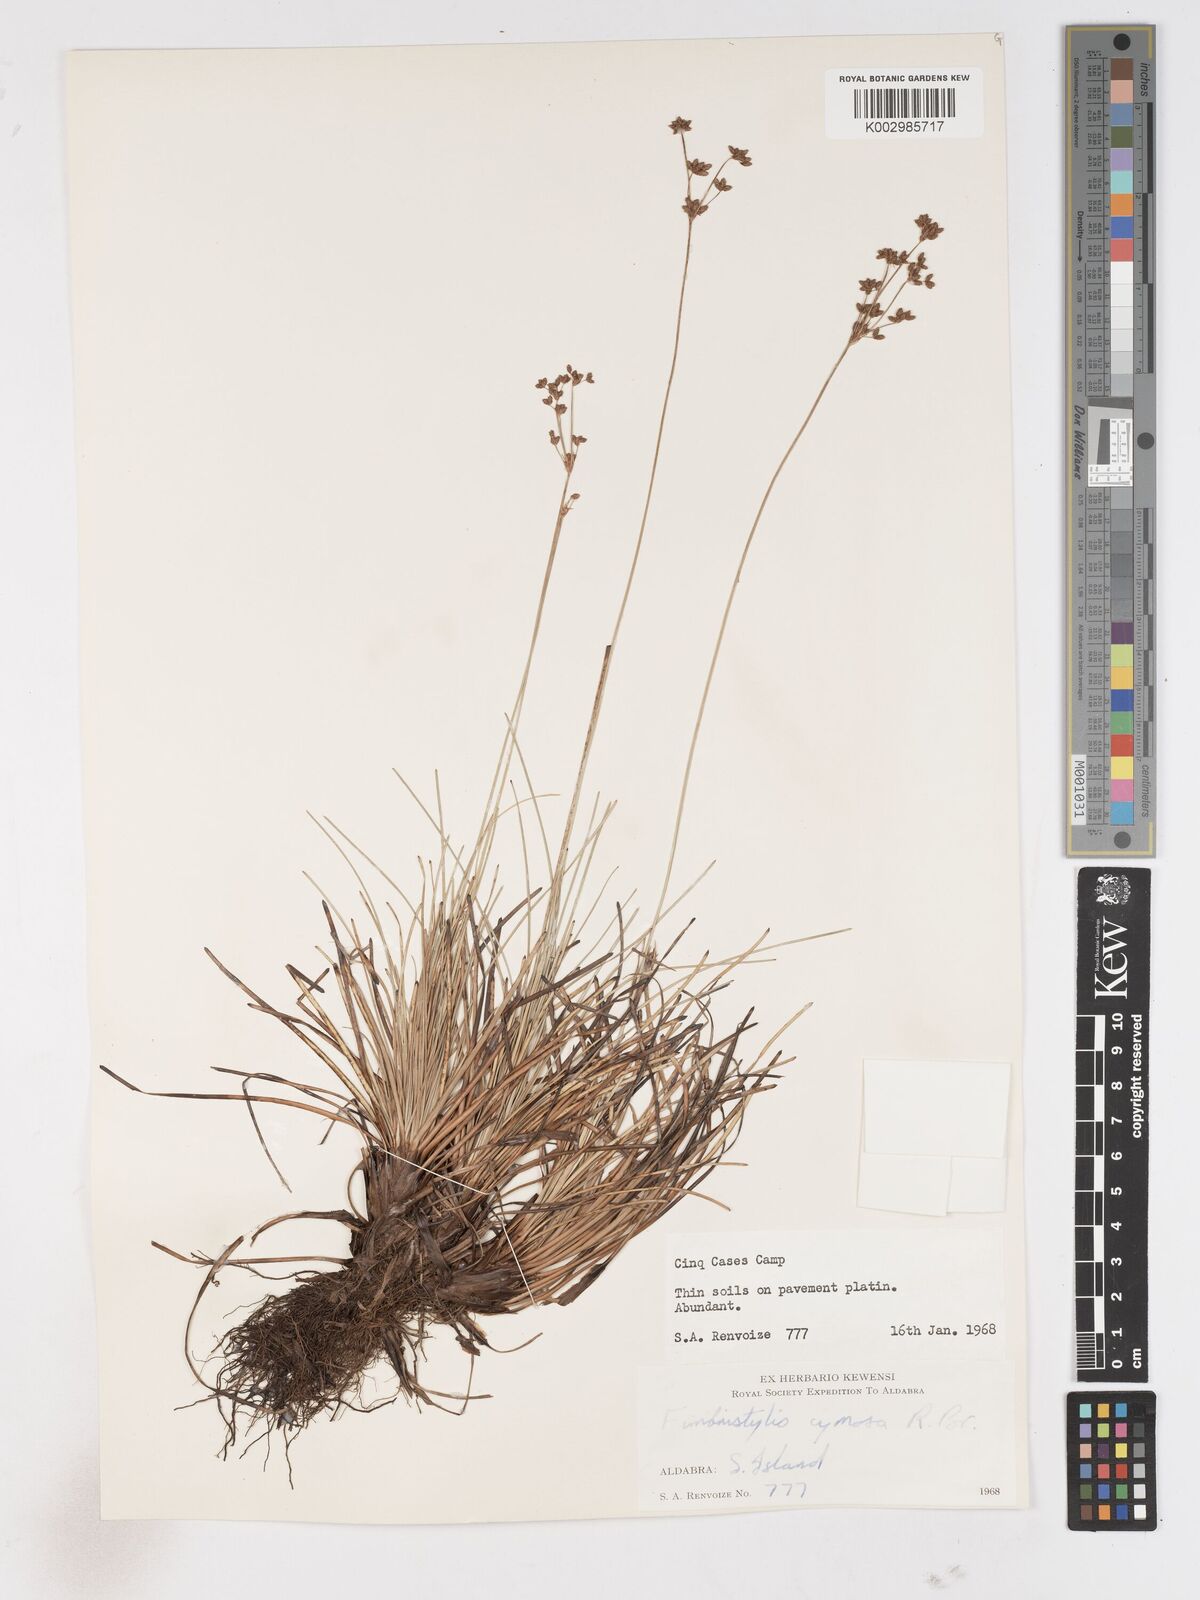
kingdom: Plantae
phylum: Tracheophyta
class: Liliopsida
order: Poales
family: Cyperaceae
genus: Fimbristylis
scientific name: Fimbristylis cymosa
